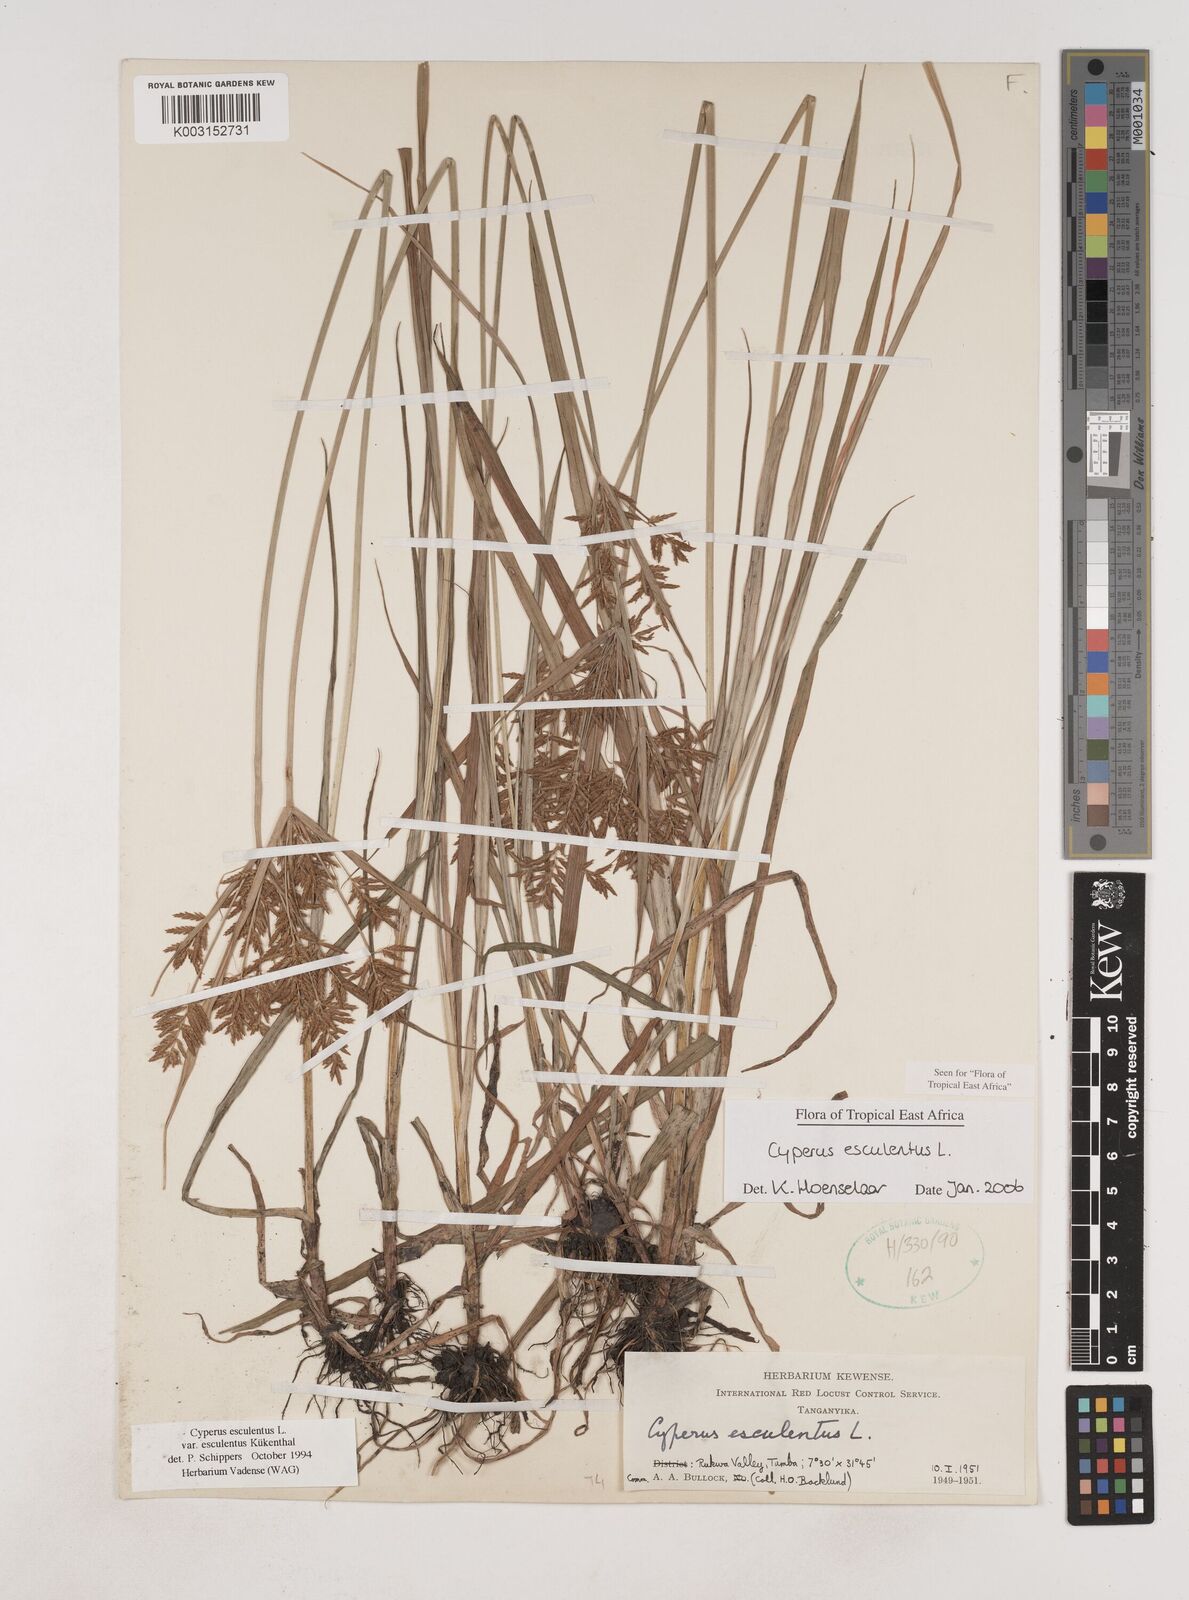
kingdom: Plantae
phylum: Tracheophyta
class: Liliopsida
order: Poales
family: Cyperaceae
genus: Cyperus
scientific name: Cyperus esculentus
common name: Yellow nutsedge
